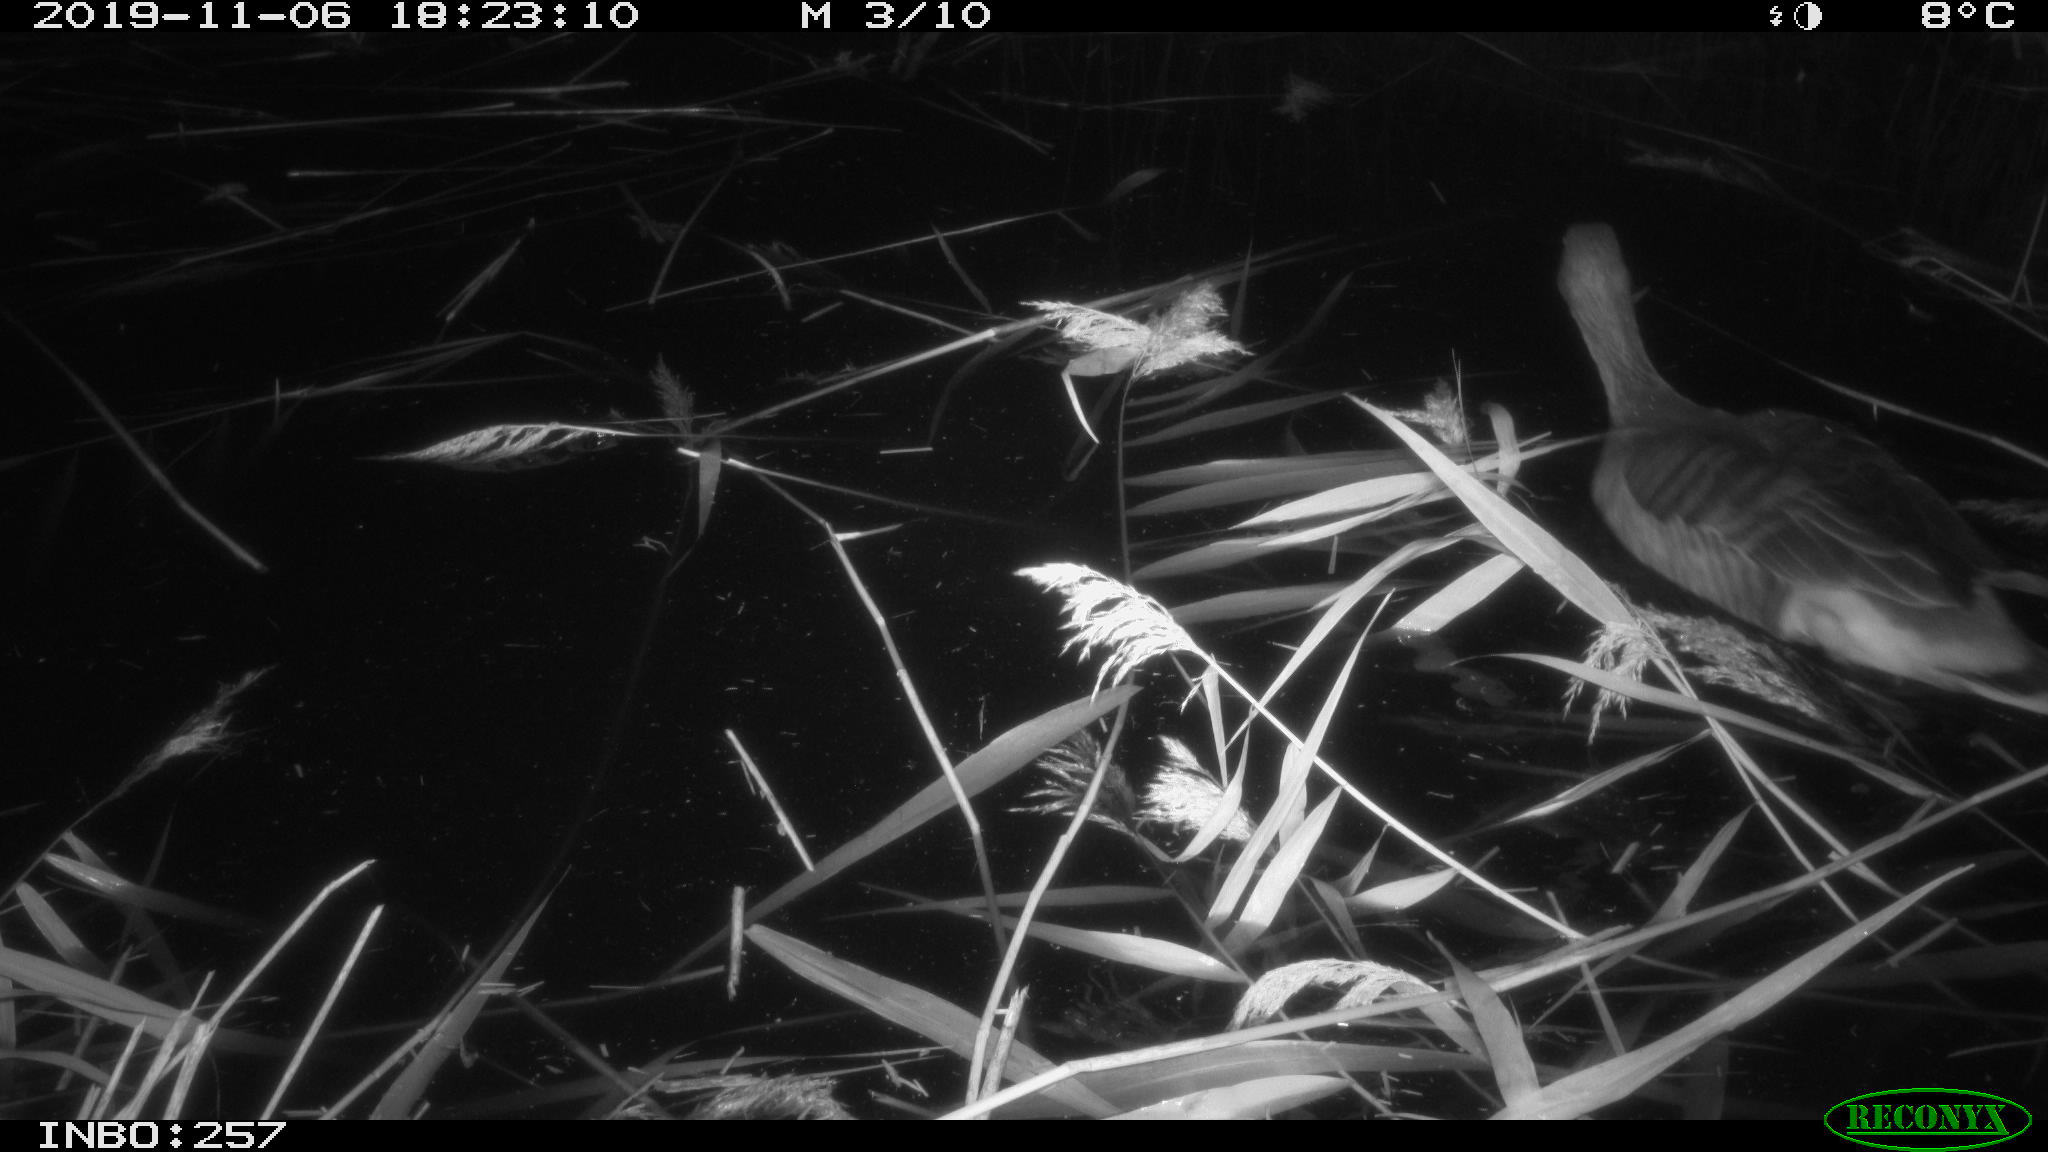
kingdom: Animalia
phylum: Chordata
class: Aves
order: Anseriformes
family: Anatidae
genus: Anser
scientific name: Anser anser
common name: Greylag goose
